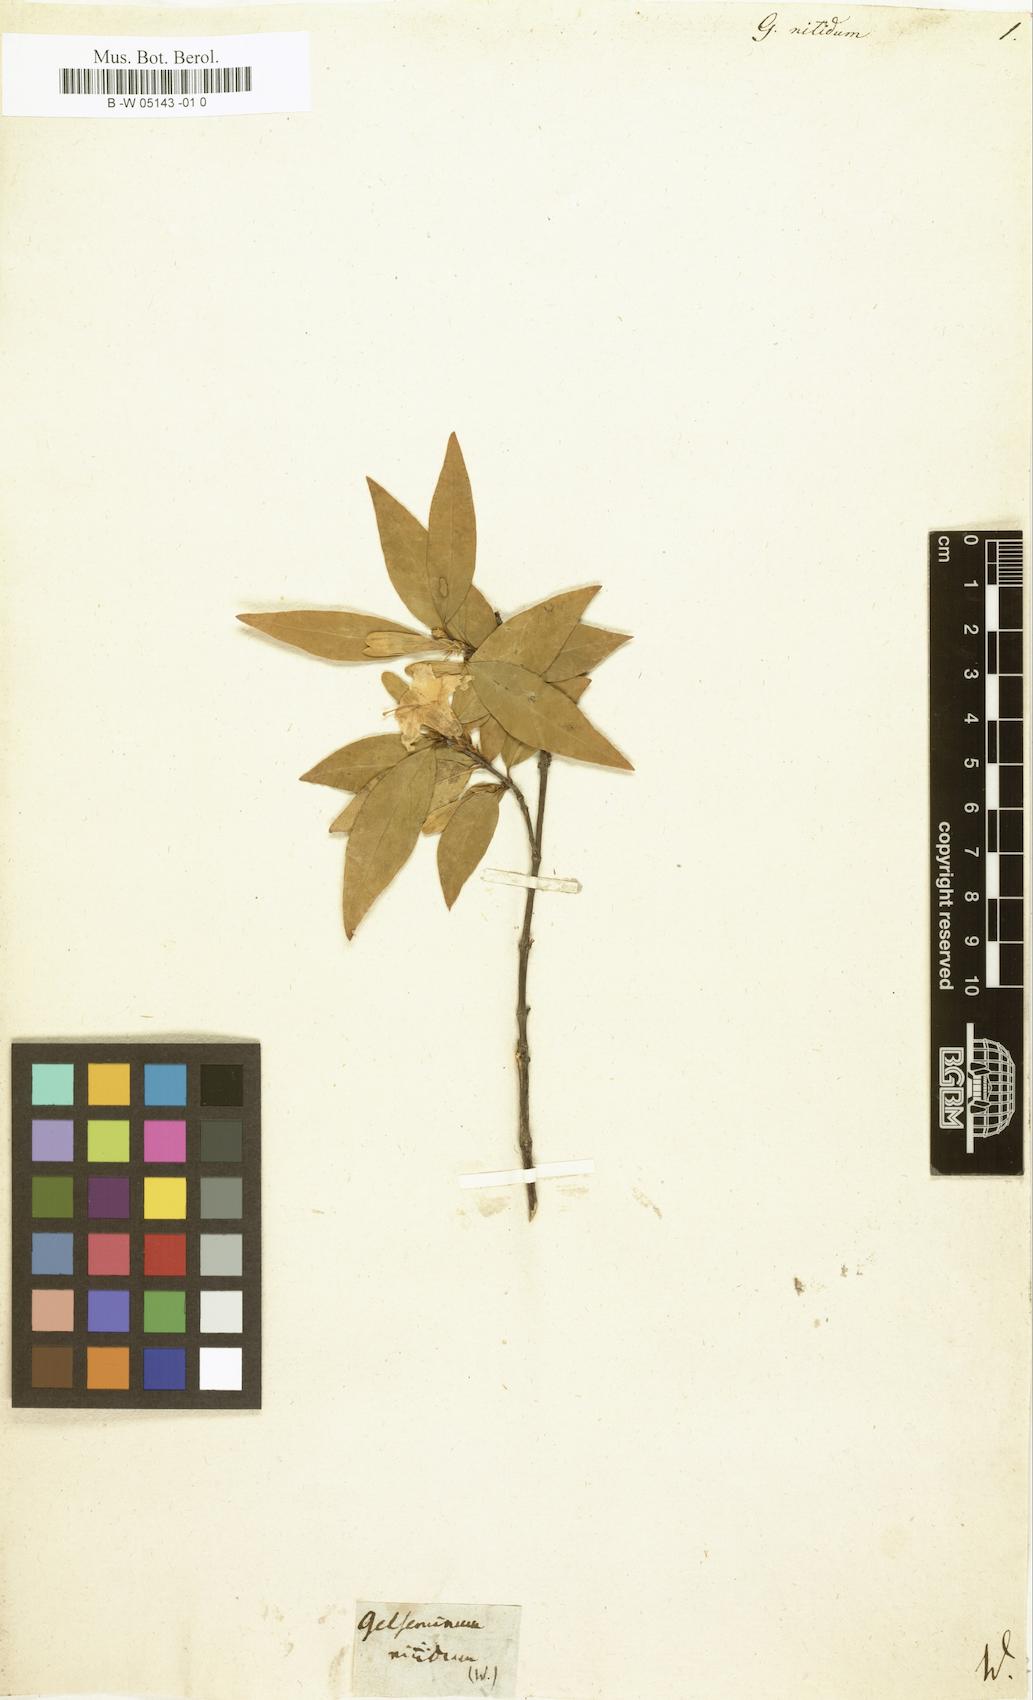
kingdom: Plantae
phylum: Tracheophyta
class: Magnoliopsida
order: Gentianales
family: Loganiaceae
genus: Gelseminum
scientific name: Gelseminum
